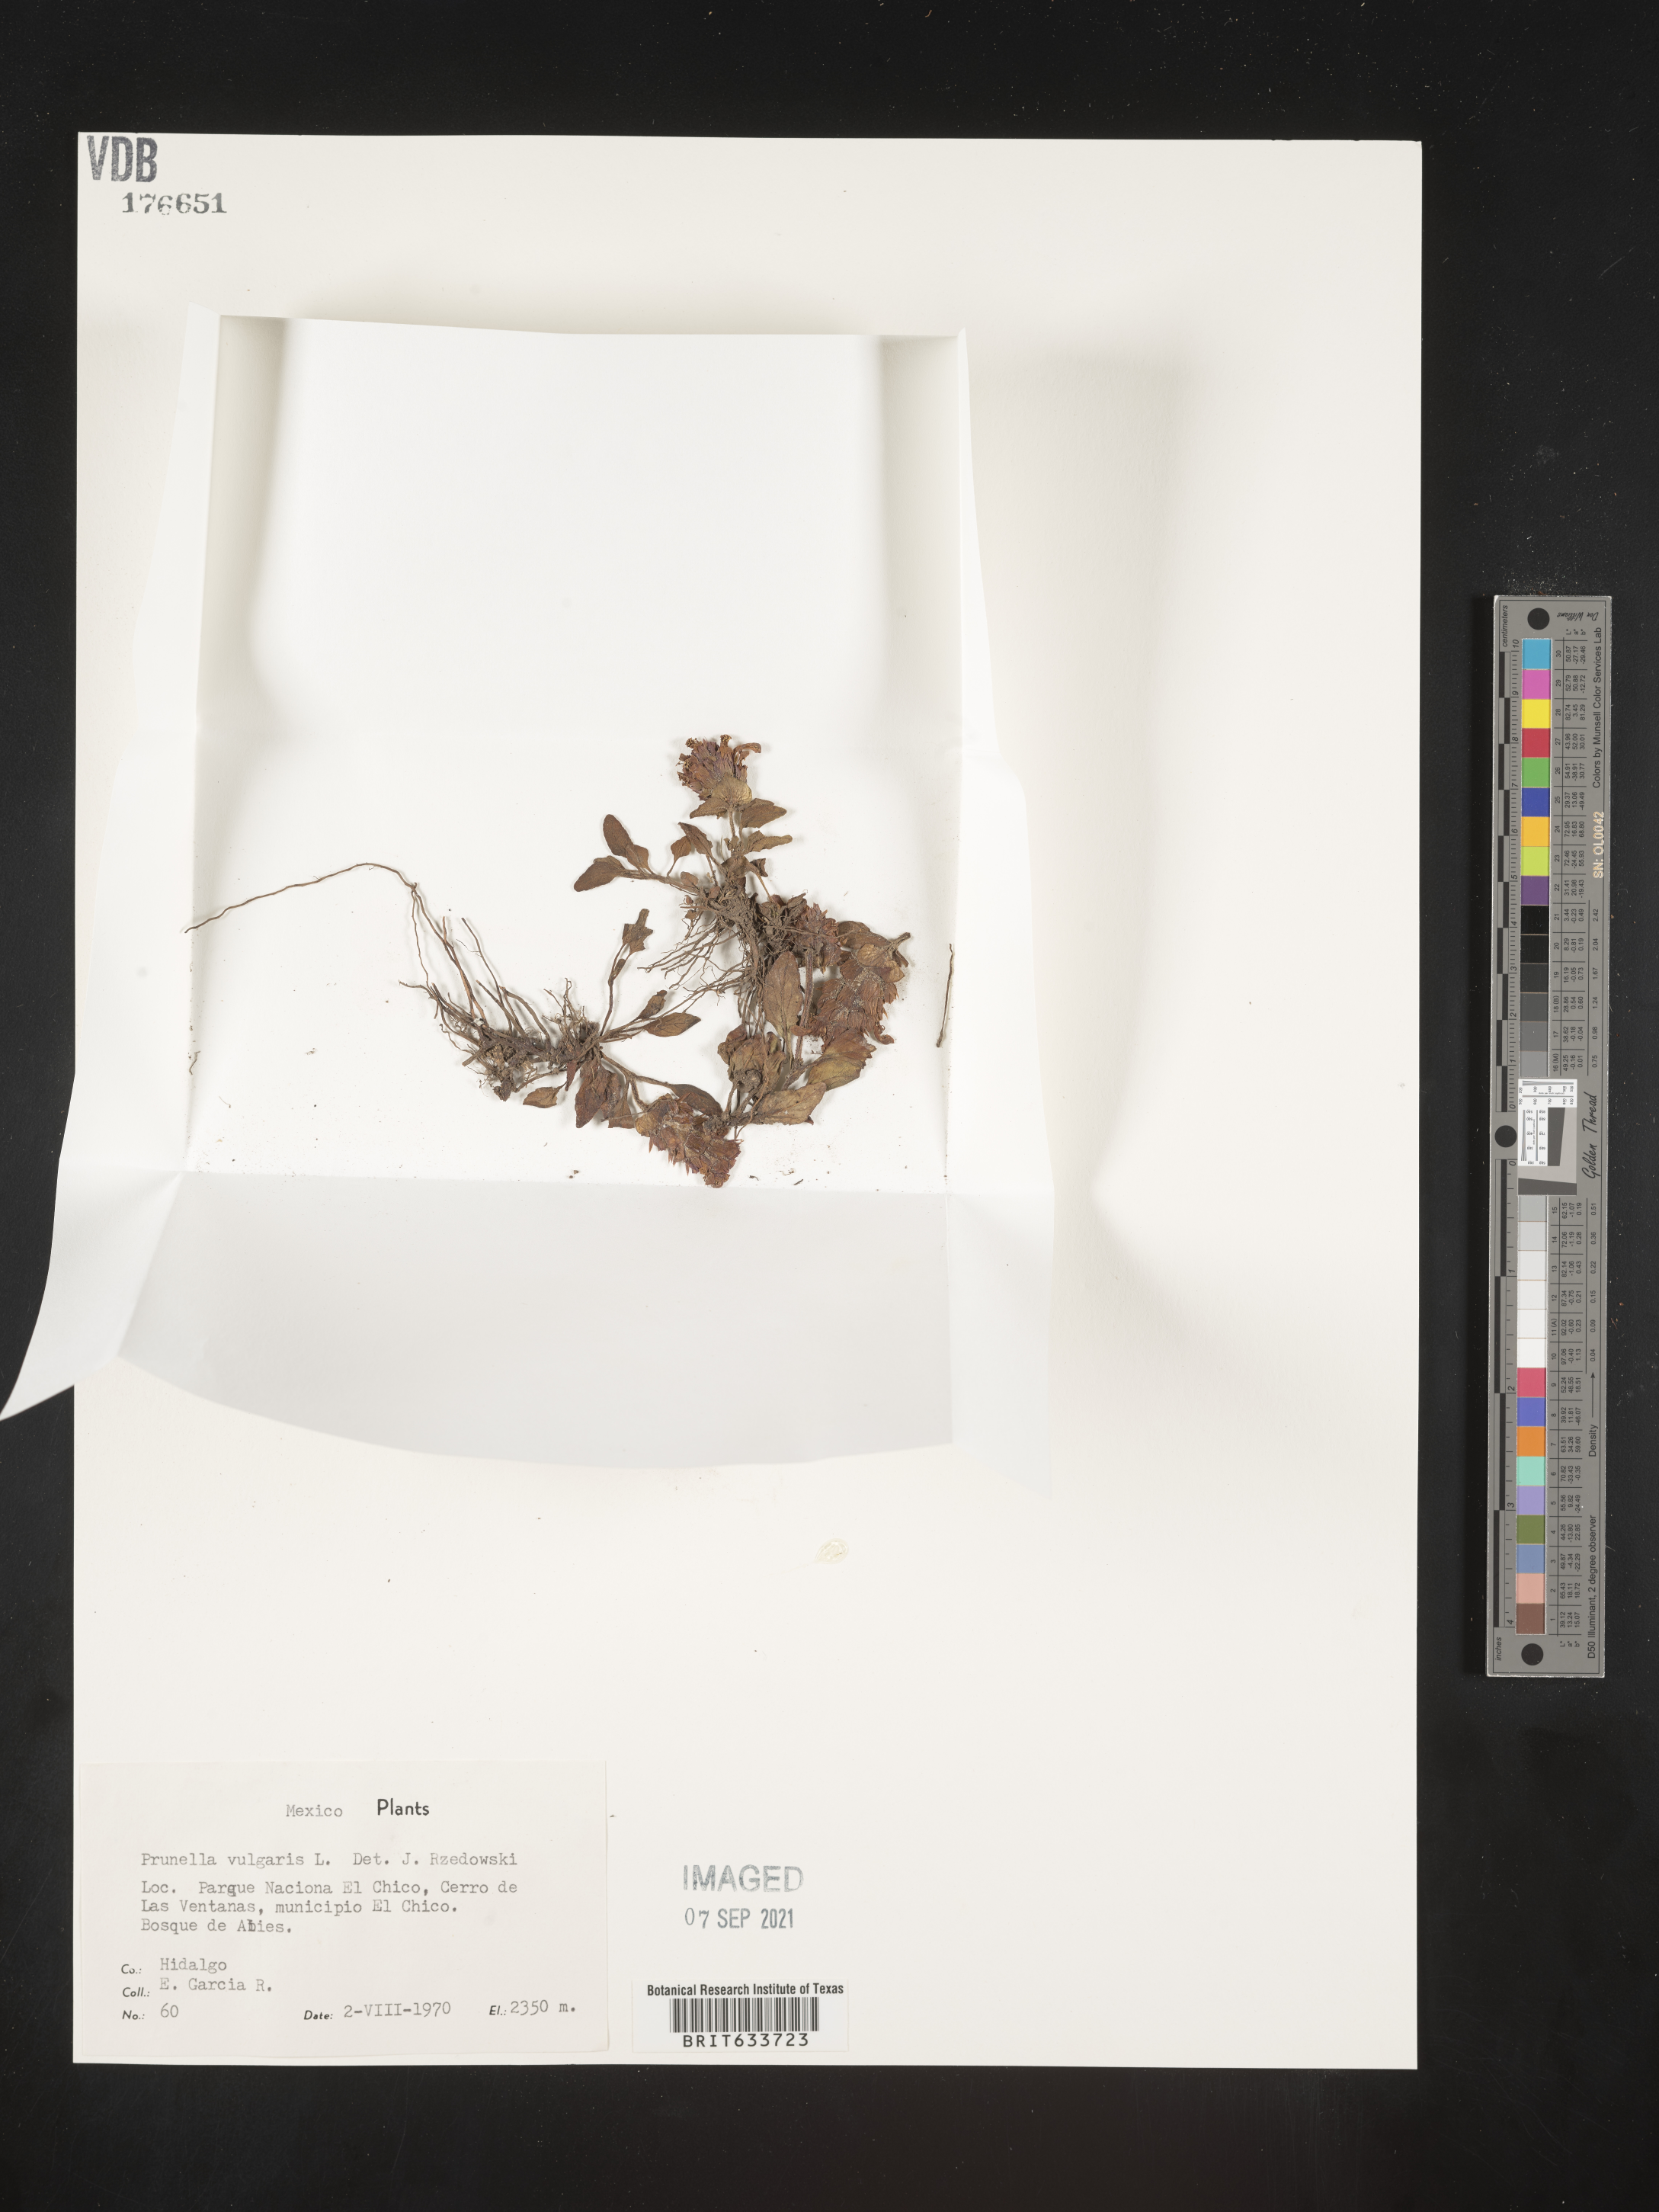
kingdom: Plantae
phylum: Tracheophyta
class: Magnoliopsida
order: Lamiales
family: Lamiaceae
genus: Prunella
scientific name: Prunella
